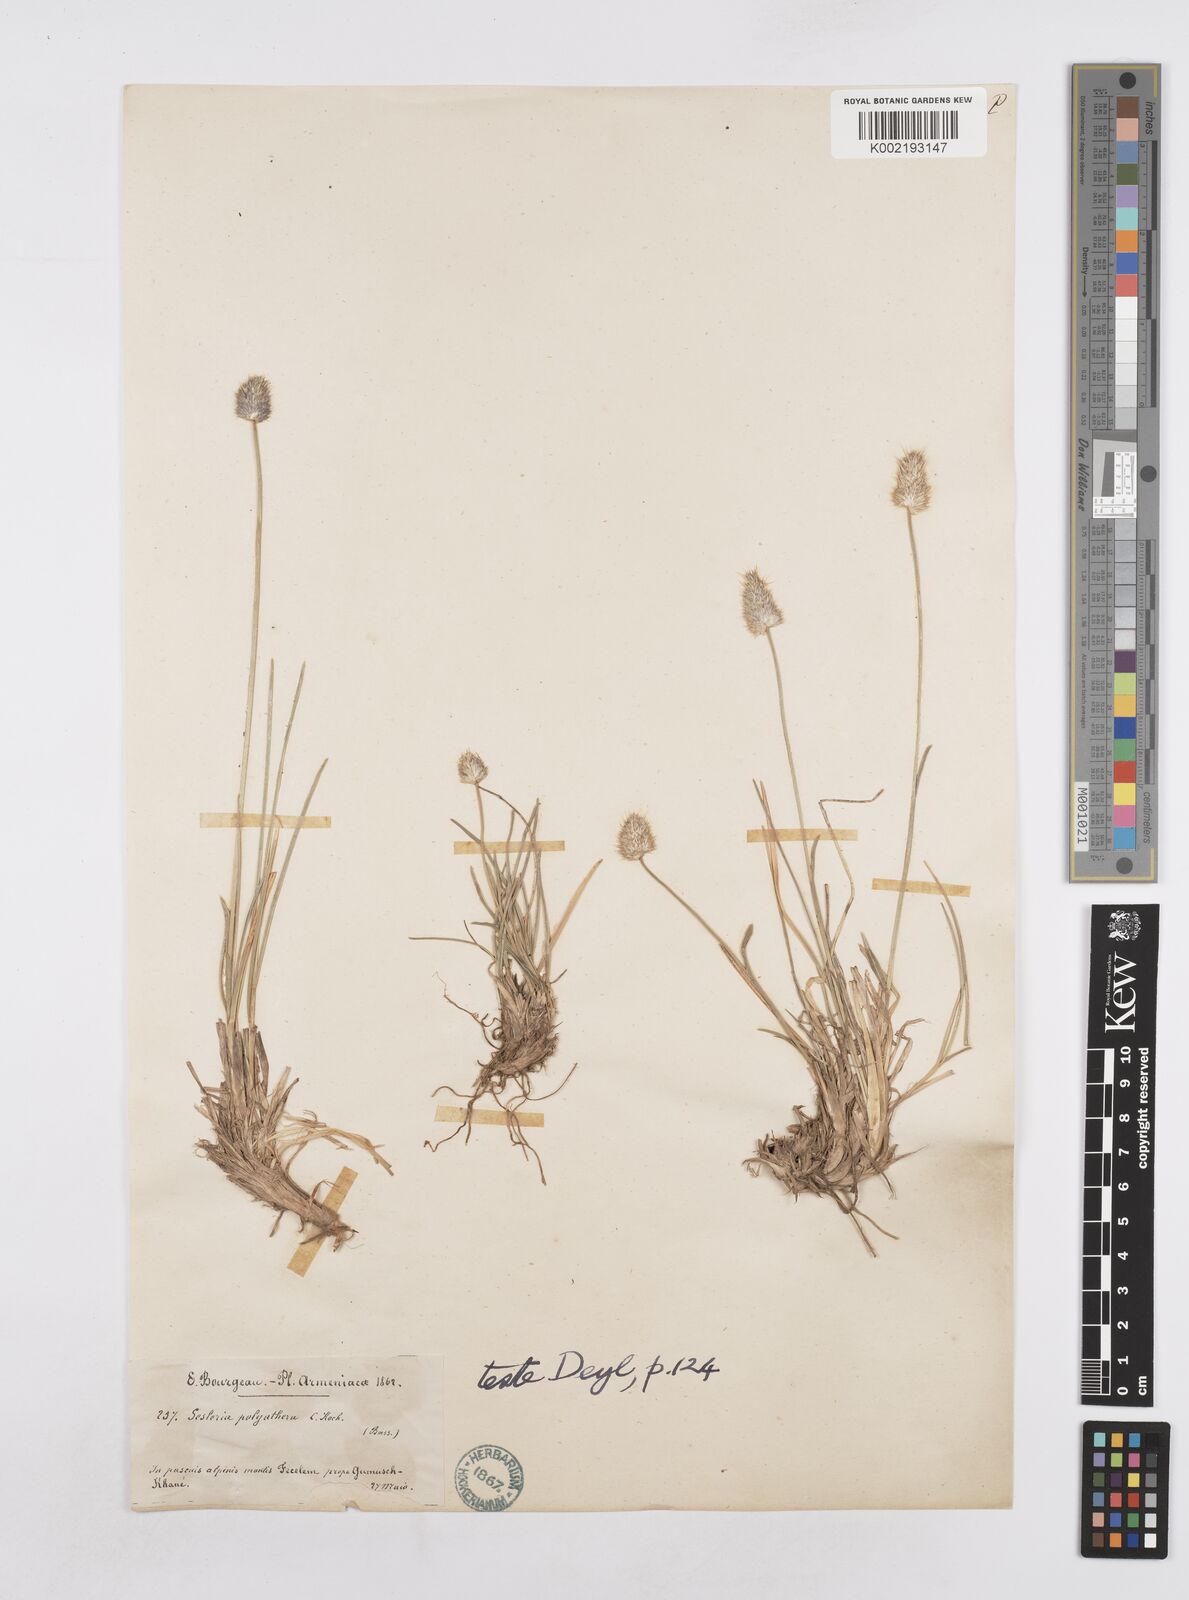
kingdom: Plantae
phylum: Tracheophyta
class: Liliopsida
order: Poales
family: Poaceae
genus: Sesleria
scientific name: Sesleria phleoides
